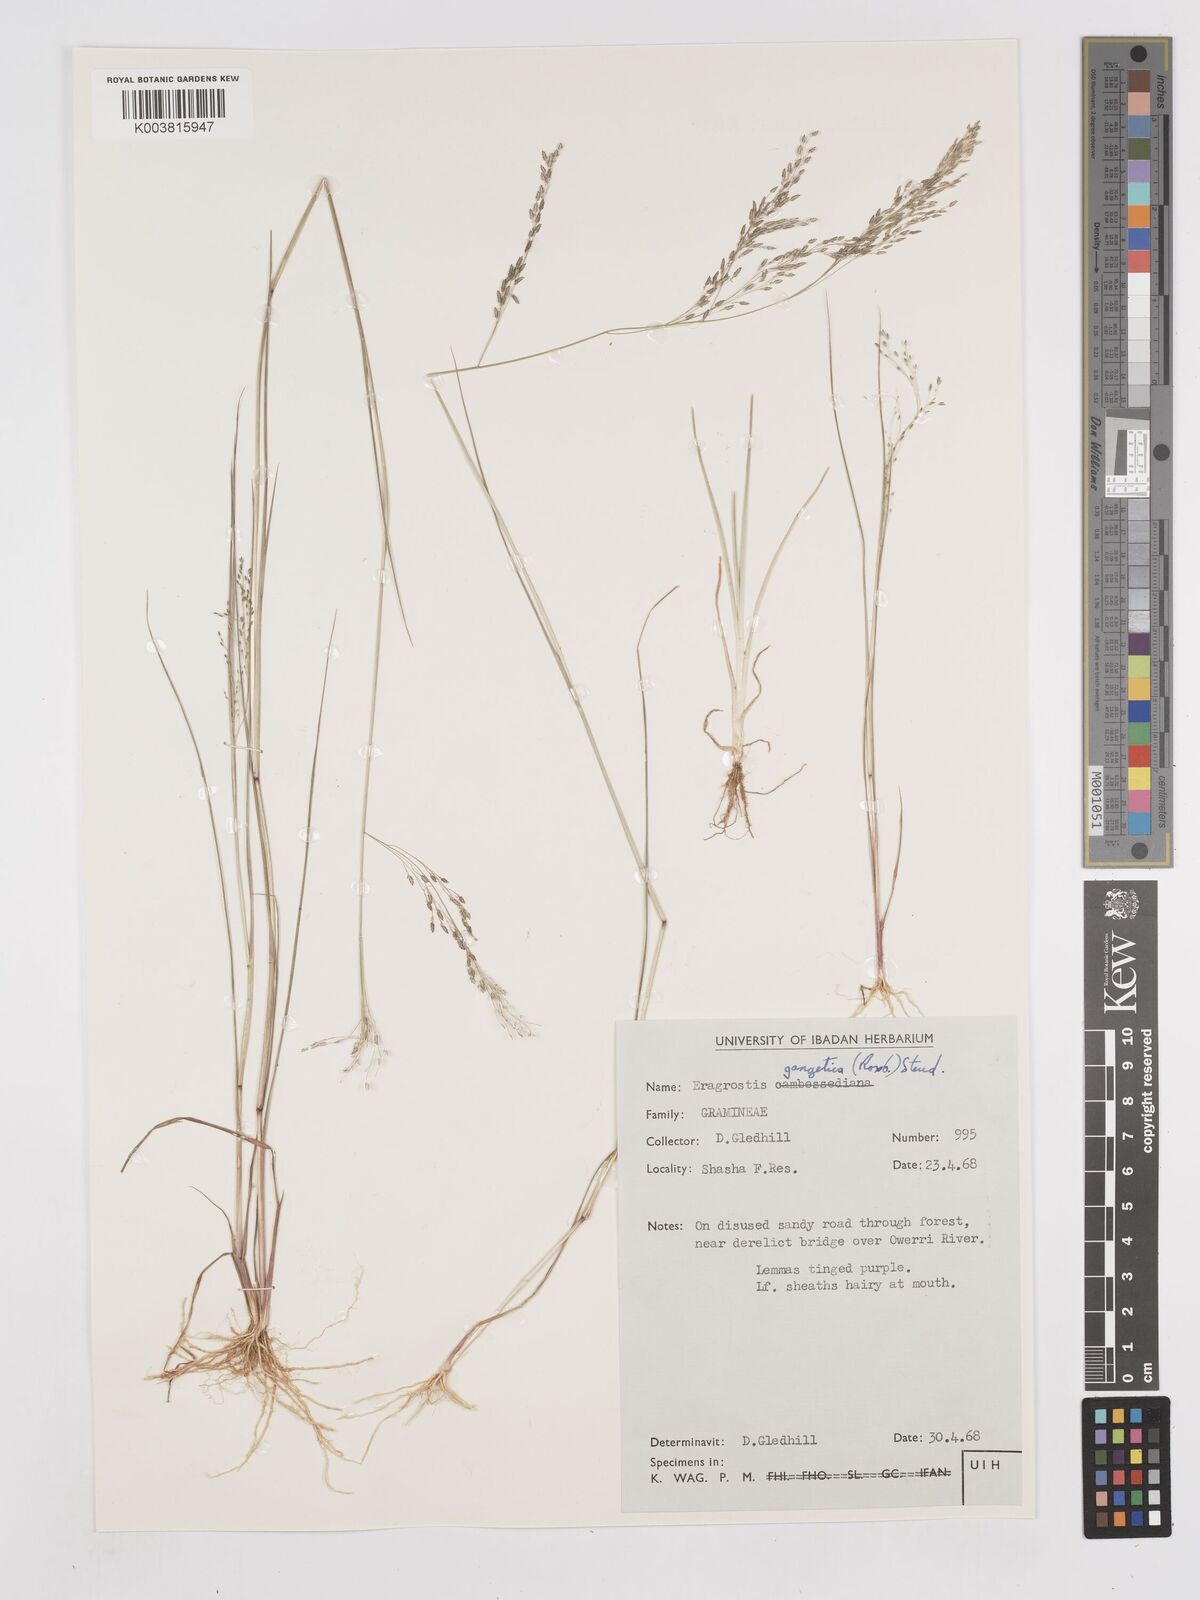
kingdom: Plantae
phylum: Tracheophyta
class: Liliopsida
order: Poales
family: Poaceae
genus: Eragrostis
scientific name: Eragrostis gangetica
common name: Slimflower lovegrass
